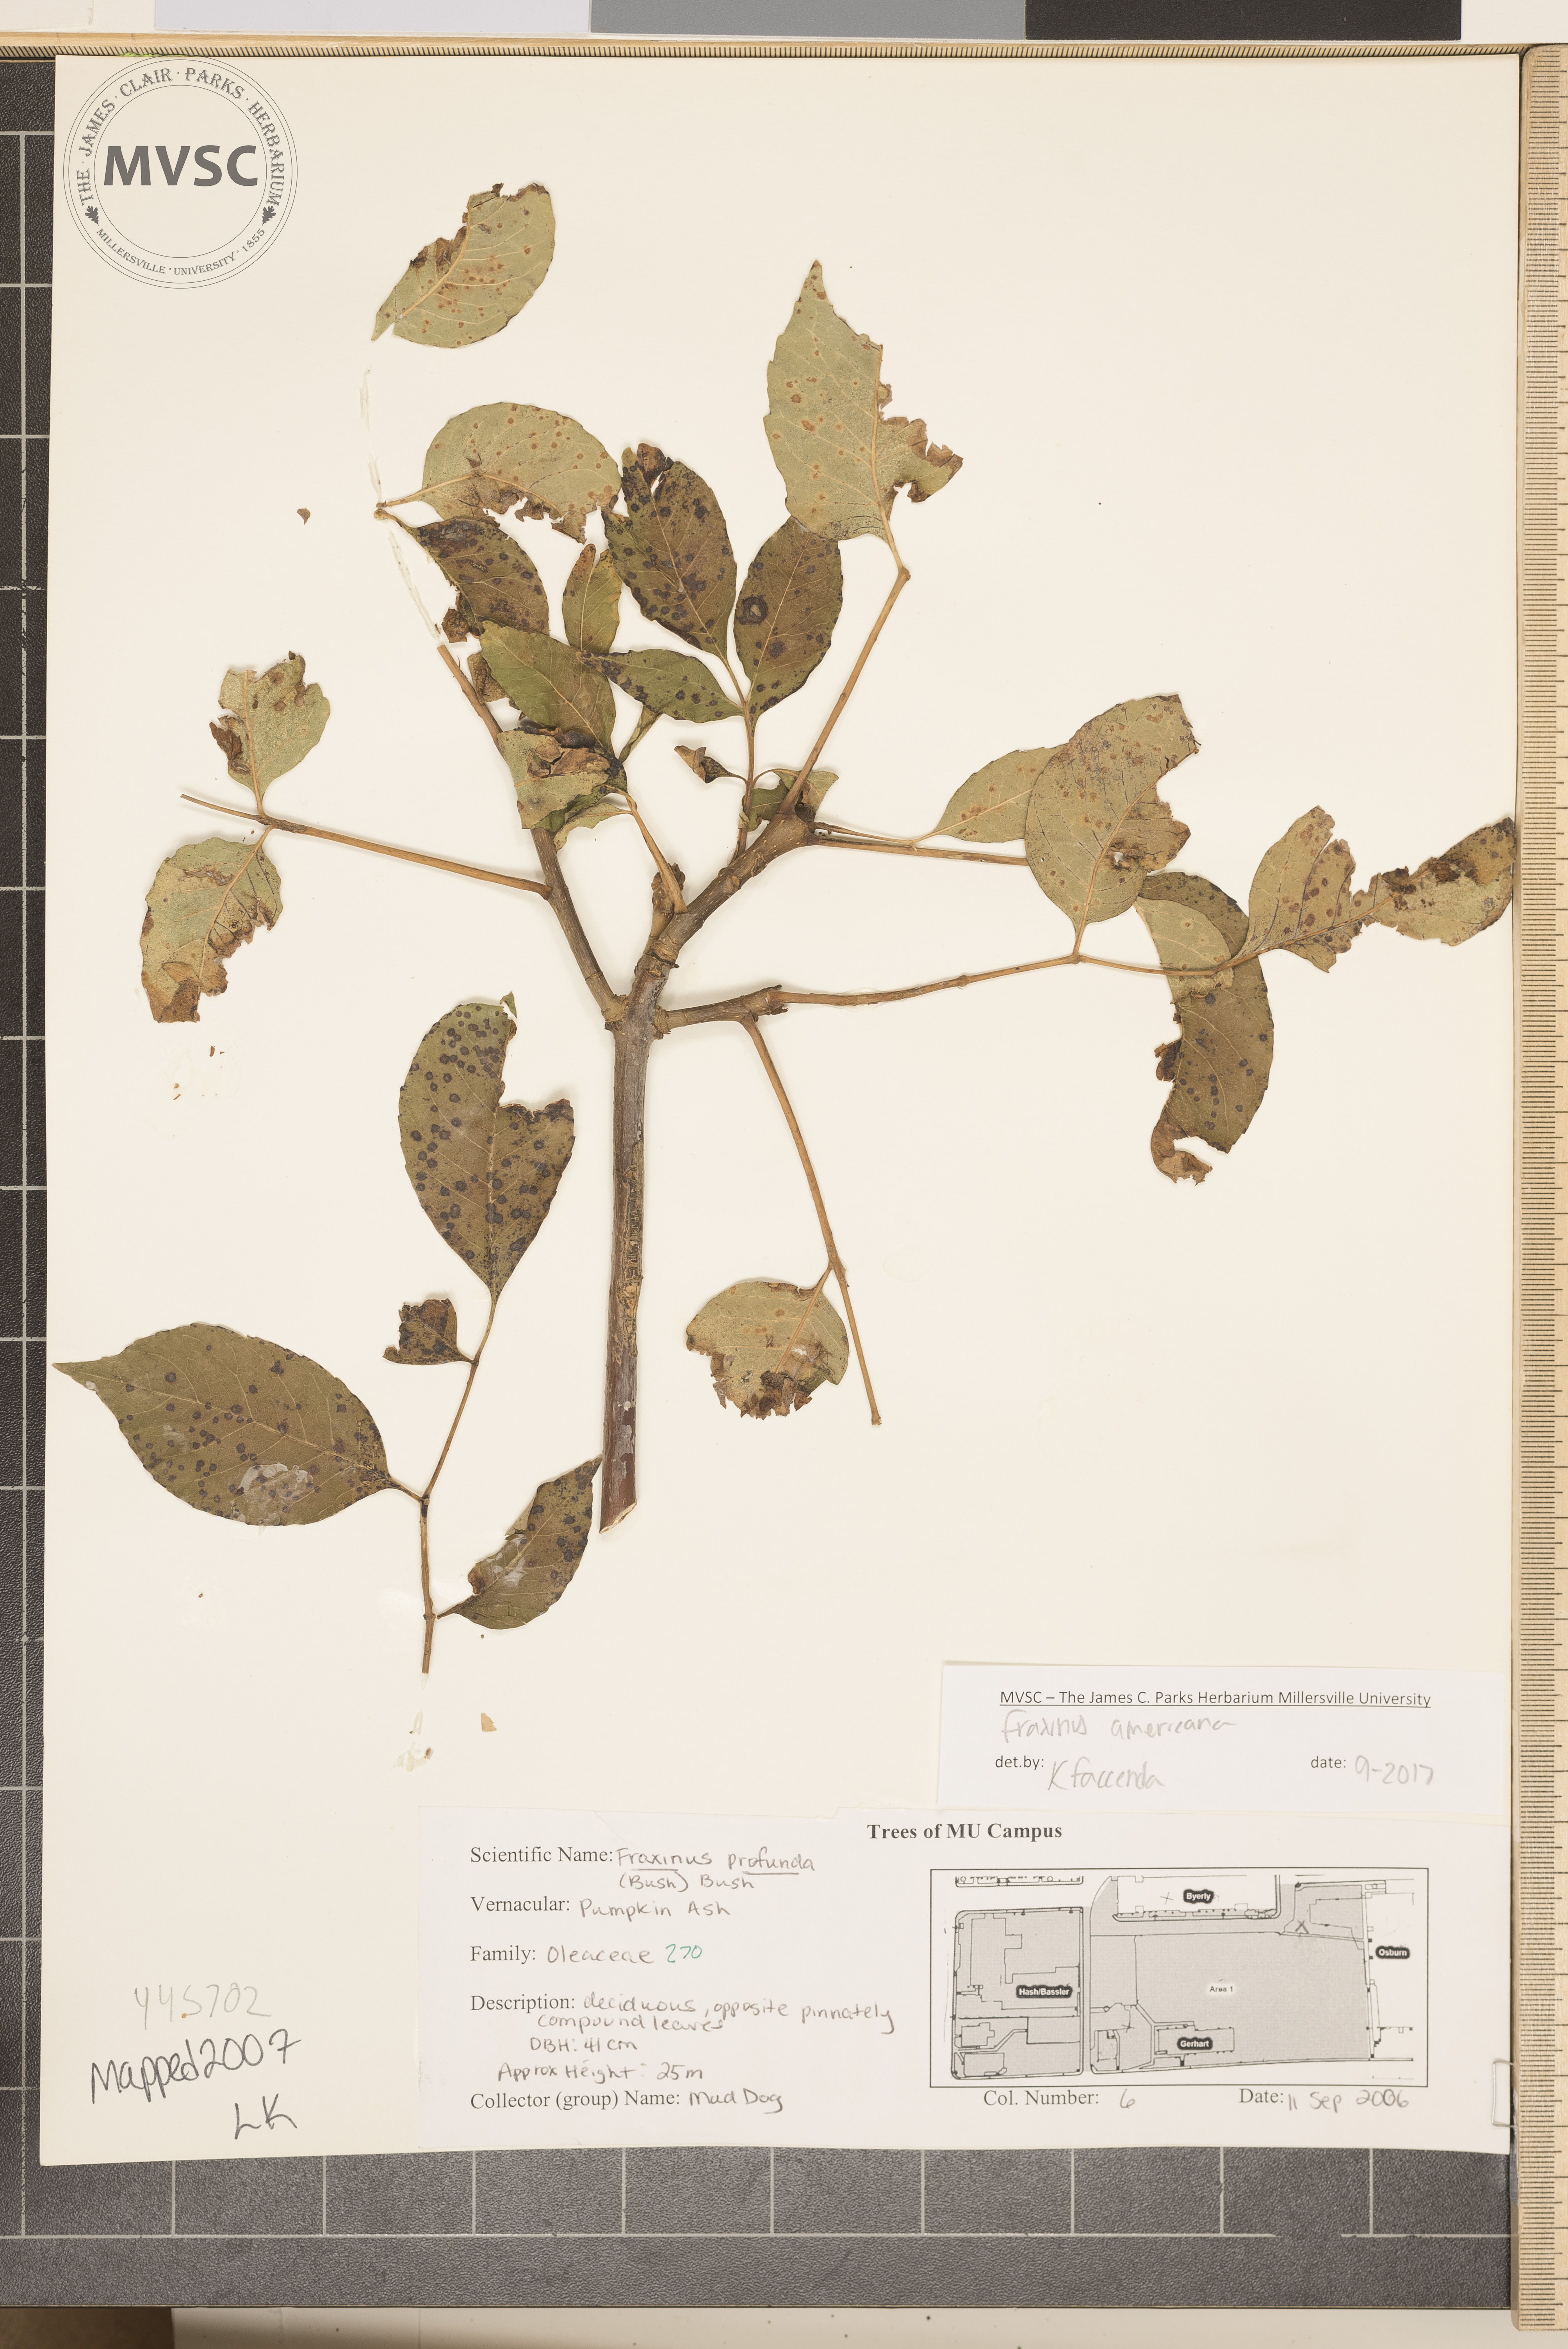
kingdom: Plantae
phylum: Tracheophyta
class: Magnoliopsida
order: Lamiales
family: Oleaceae
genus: Fraxinus
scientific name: Fraxinus americana
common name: White ash
